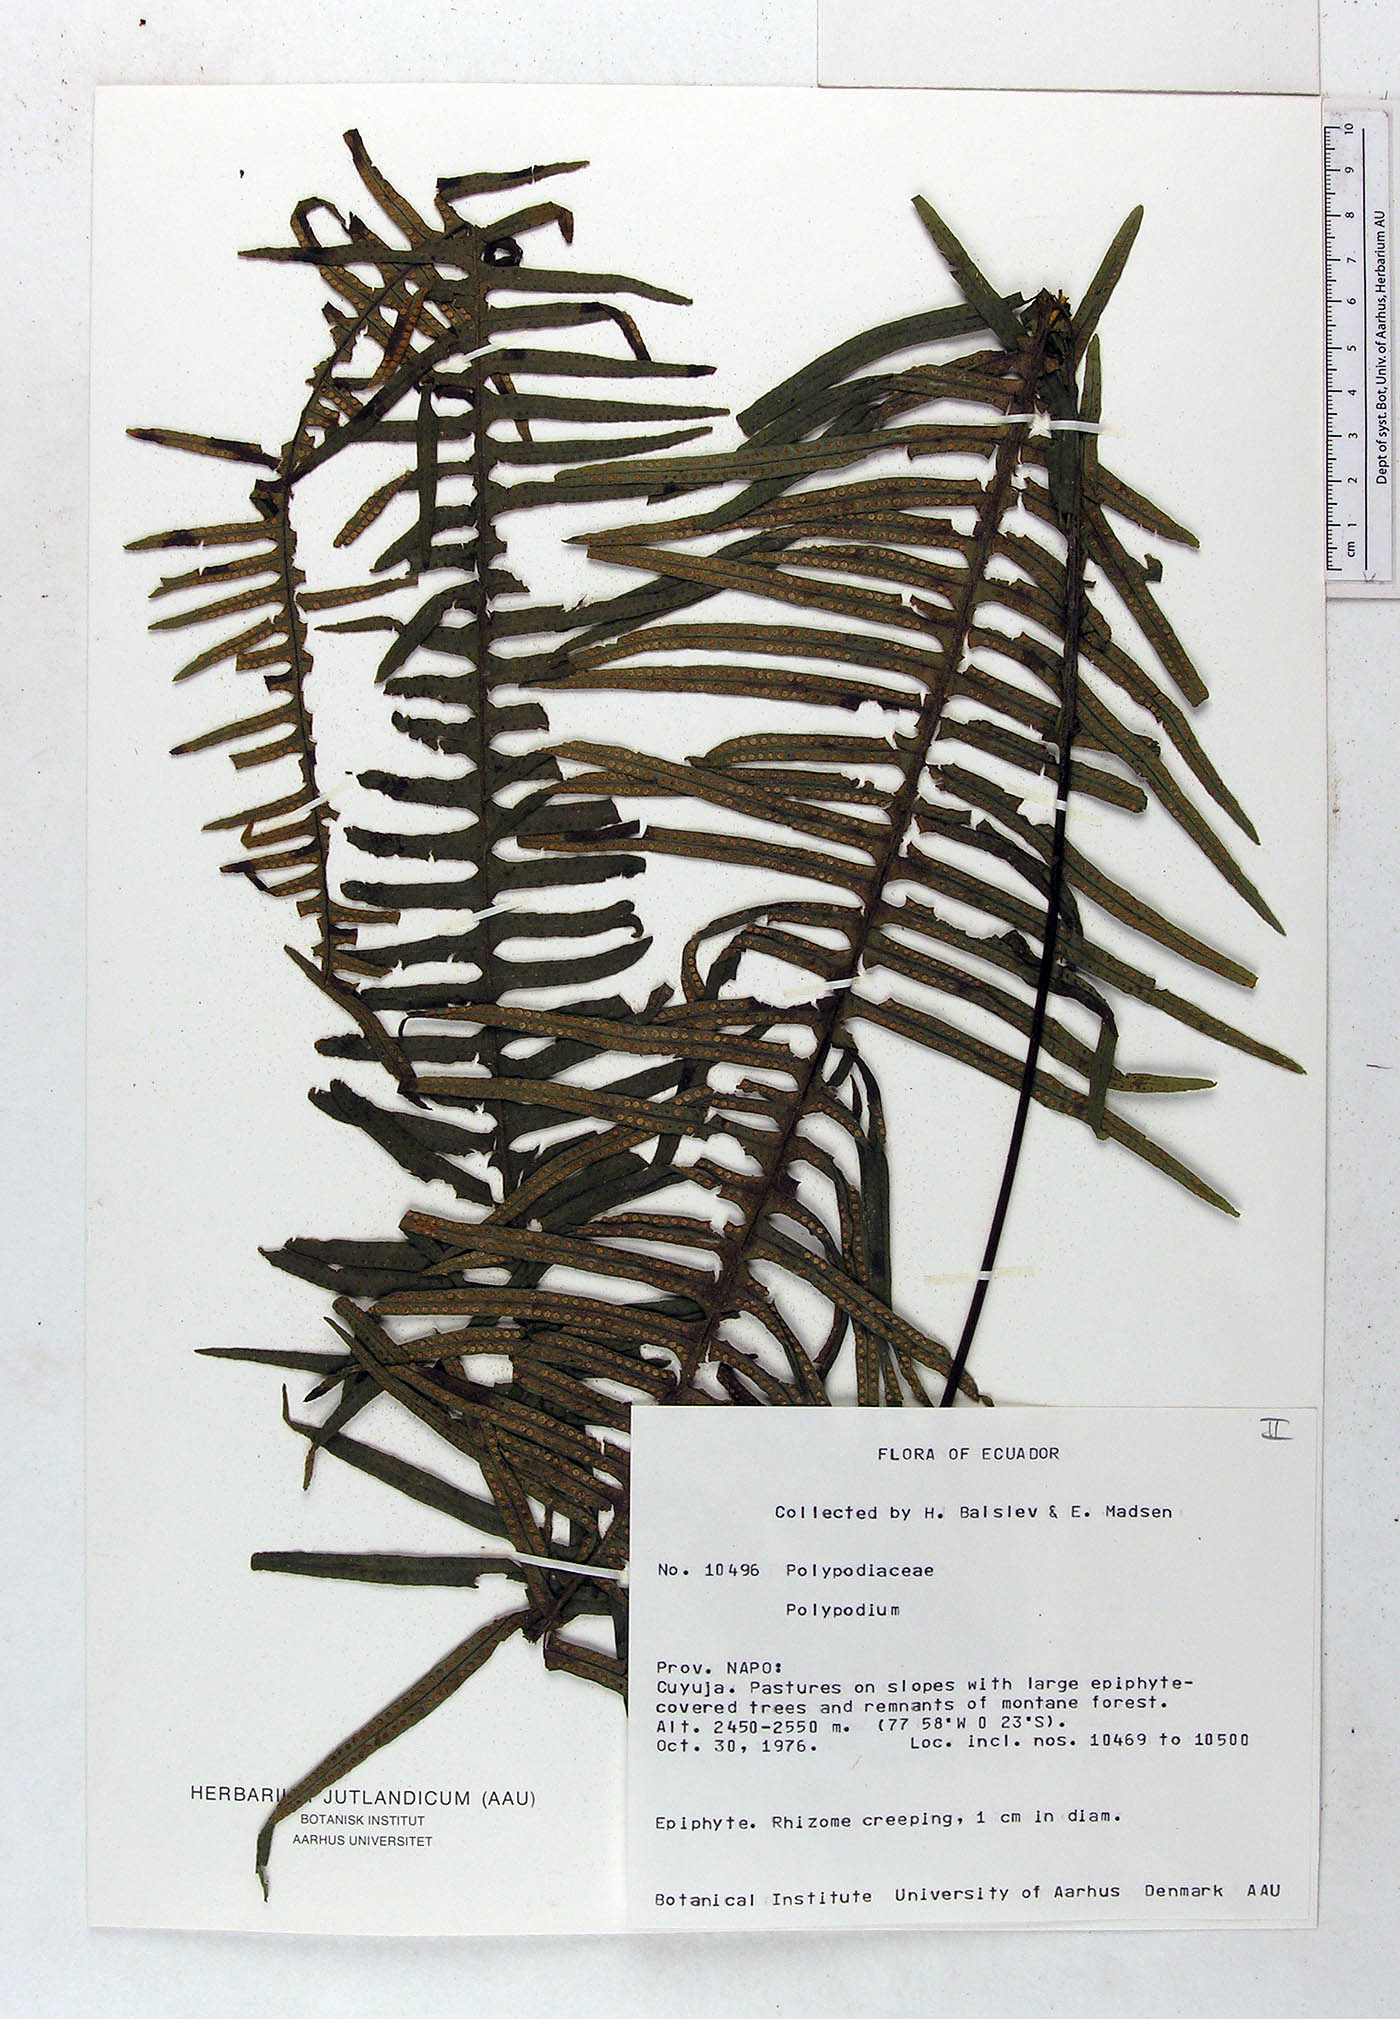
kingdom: Plantae
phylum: Tracheophyta
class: Polypodiopsida
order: Polypodiales
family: Polypodiaceae
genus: Pecluma
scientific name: Pecluma divaricata
